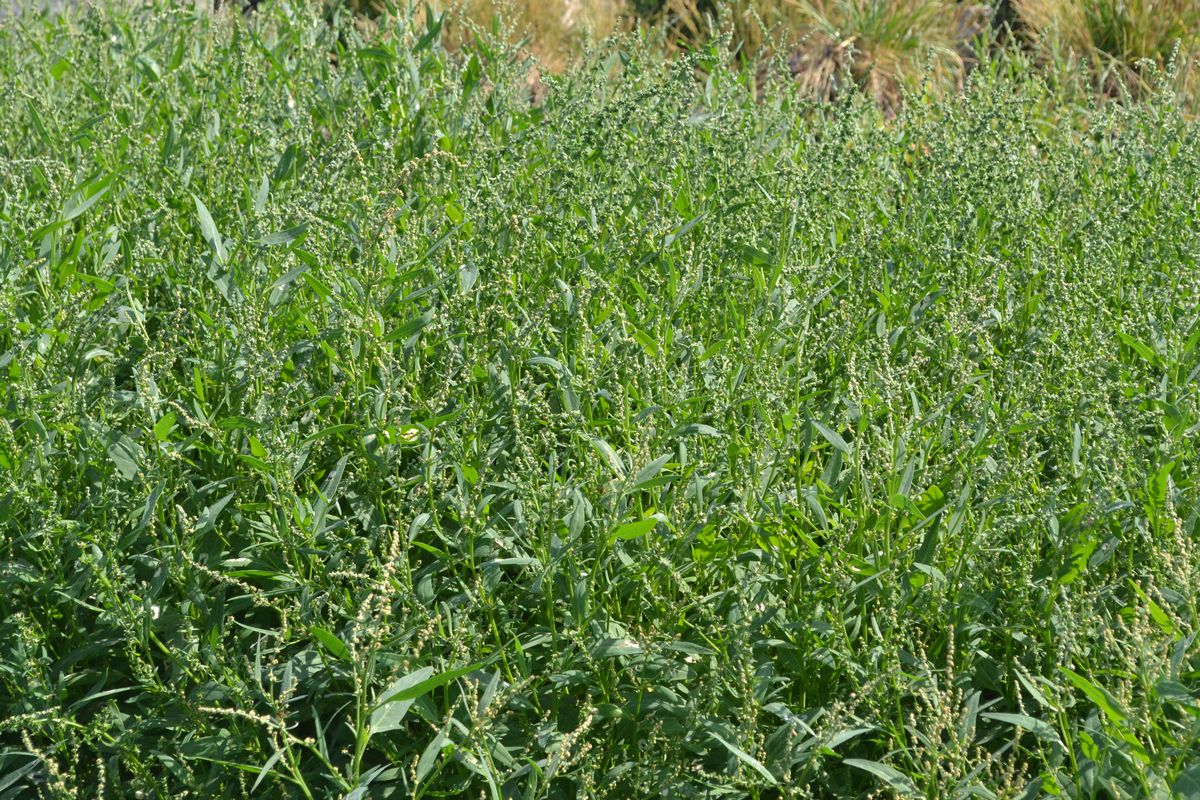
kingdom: Plantae
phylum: Tracheophyta
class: Magnoliopsida
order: Caryophyllales
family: Amaranthaceae
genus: Atriplex
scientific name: Atriplex nudicaulis
